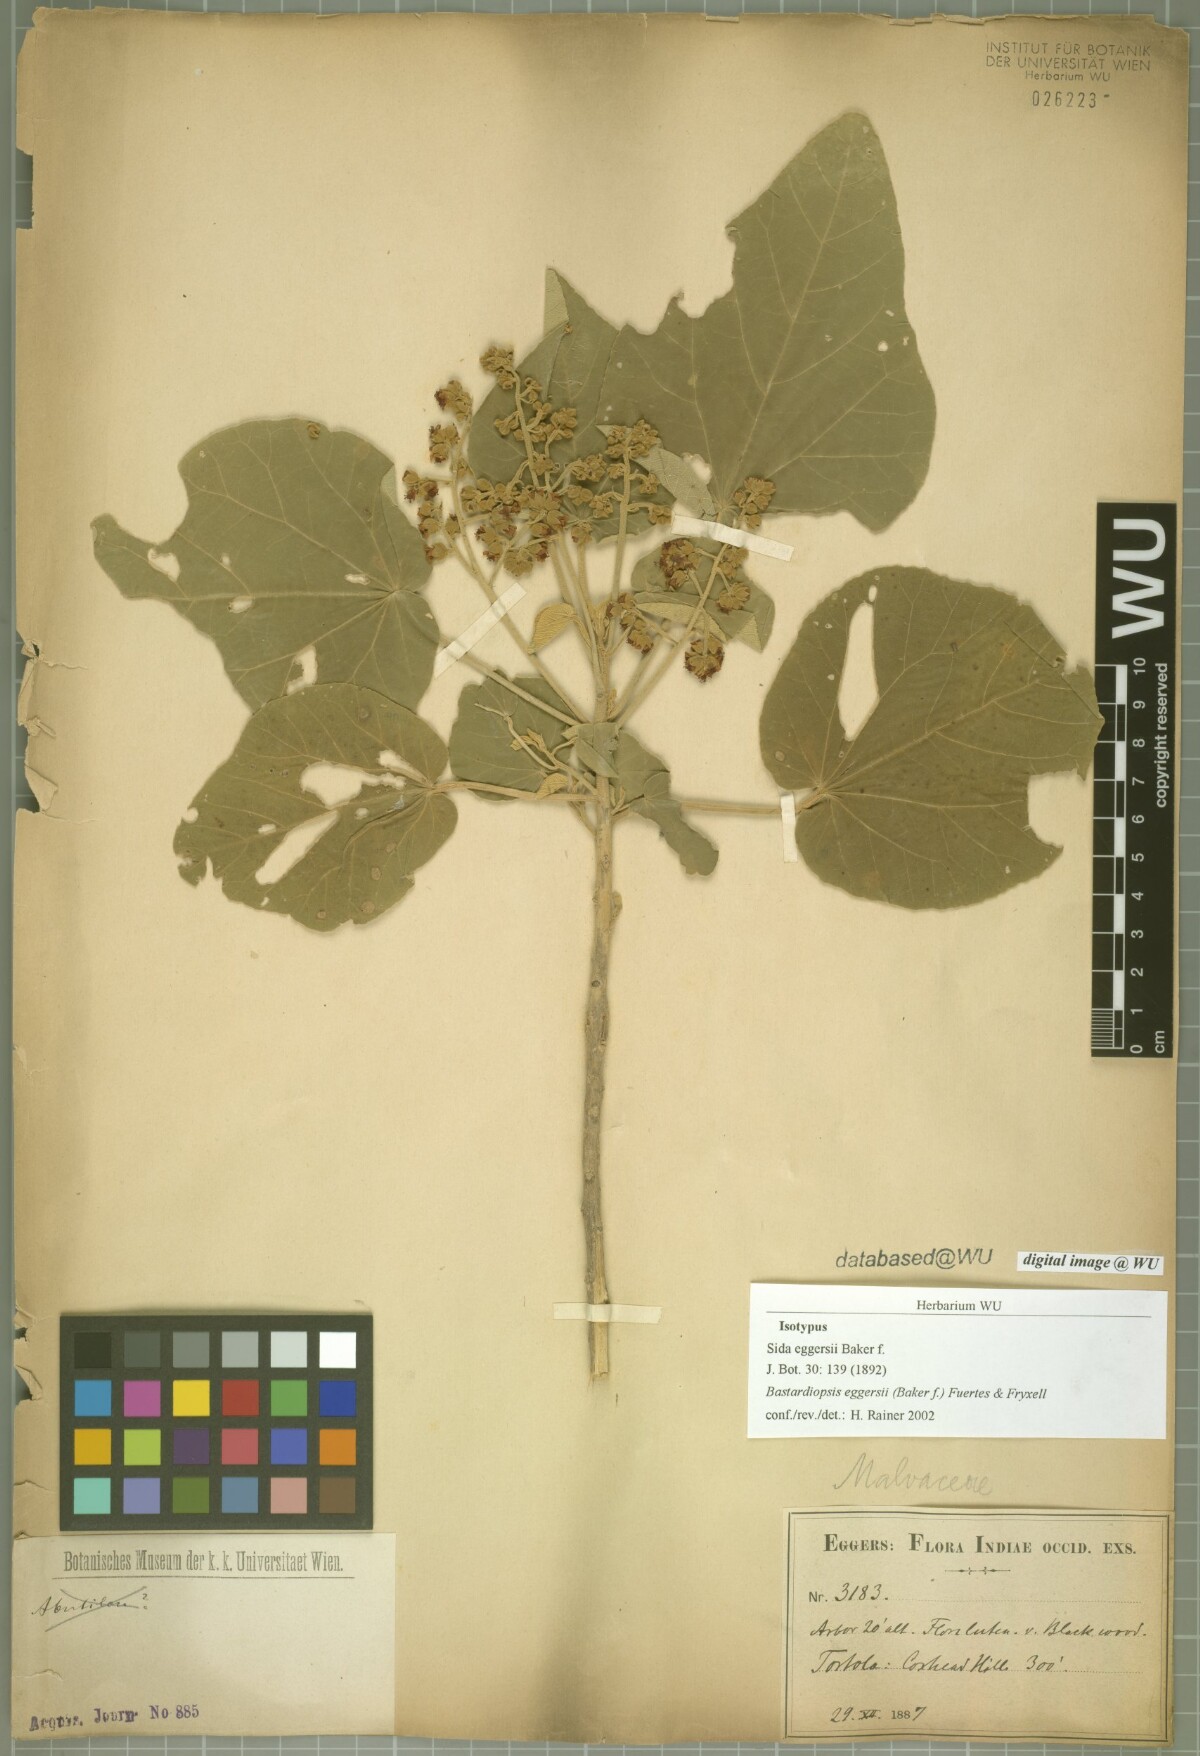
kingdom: Plantae
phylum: Tracheophyta
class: Magnoliopsida
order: Malvales
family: Malvaceae
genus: Bastardiopsis
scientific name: Bastardiopsis eggersii
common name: Jost van dyke's indian mallow
